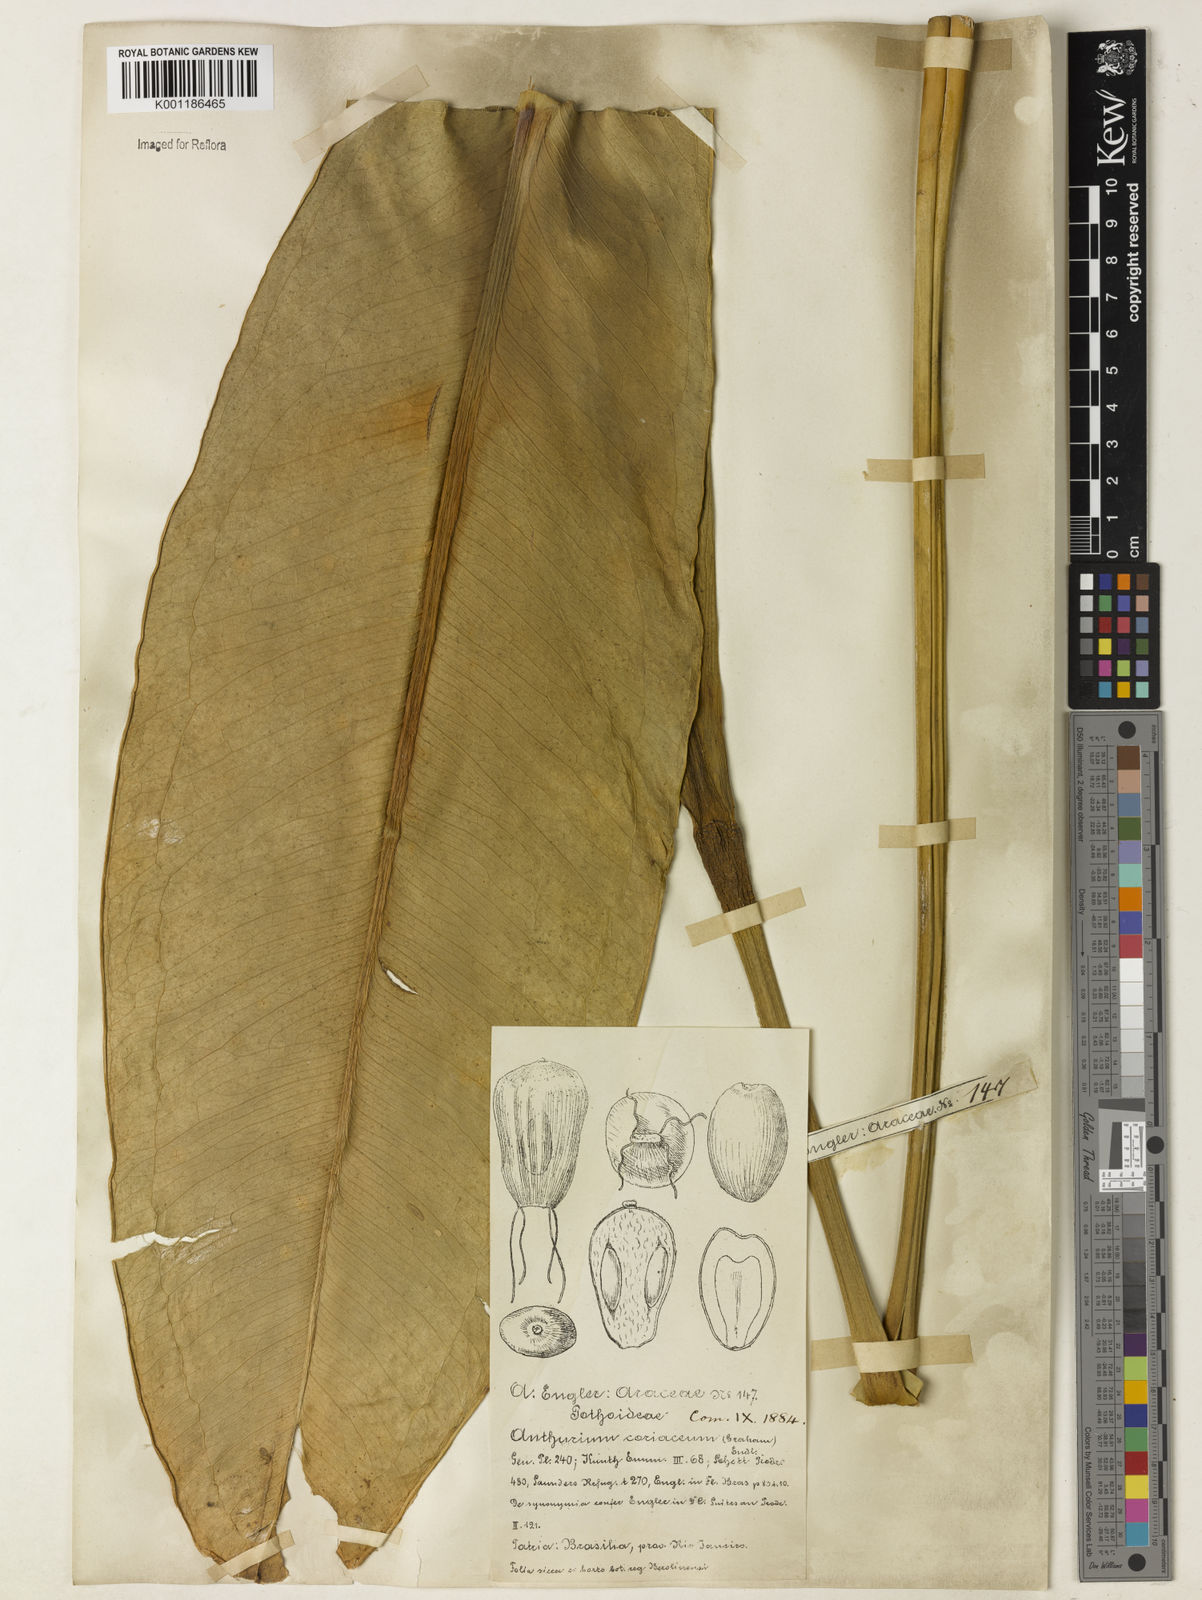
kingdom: Plantae
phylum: Tracheophyta
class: Liliopsida
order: Alismatales
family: Araceae
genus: Anthurium
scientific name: Anthurium coriaceum
